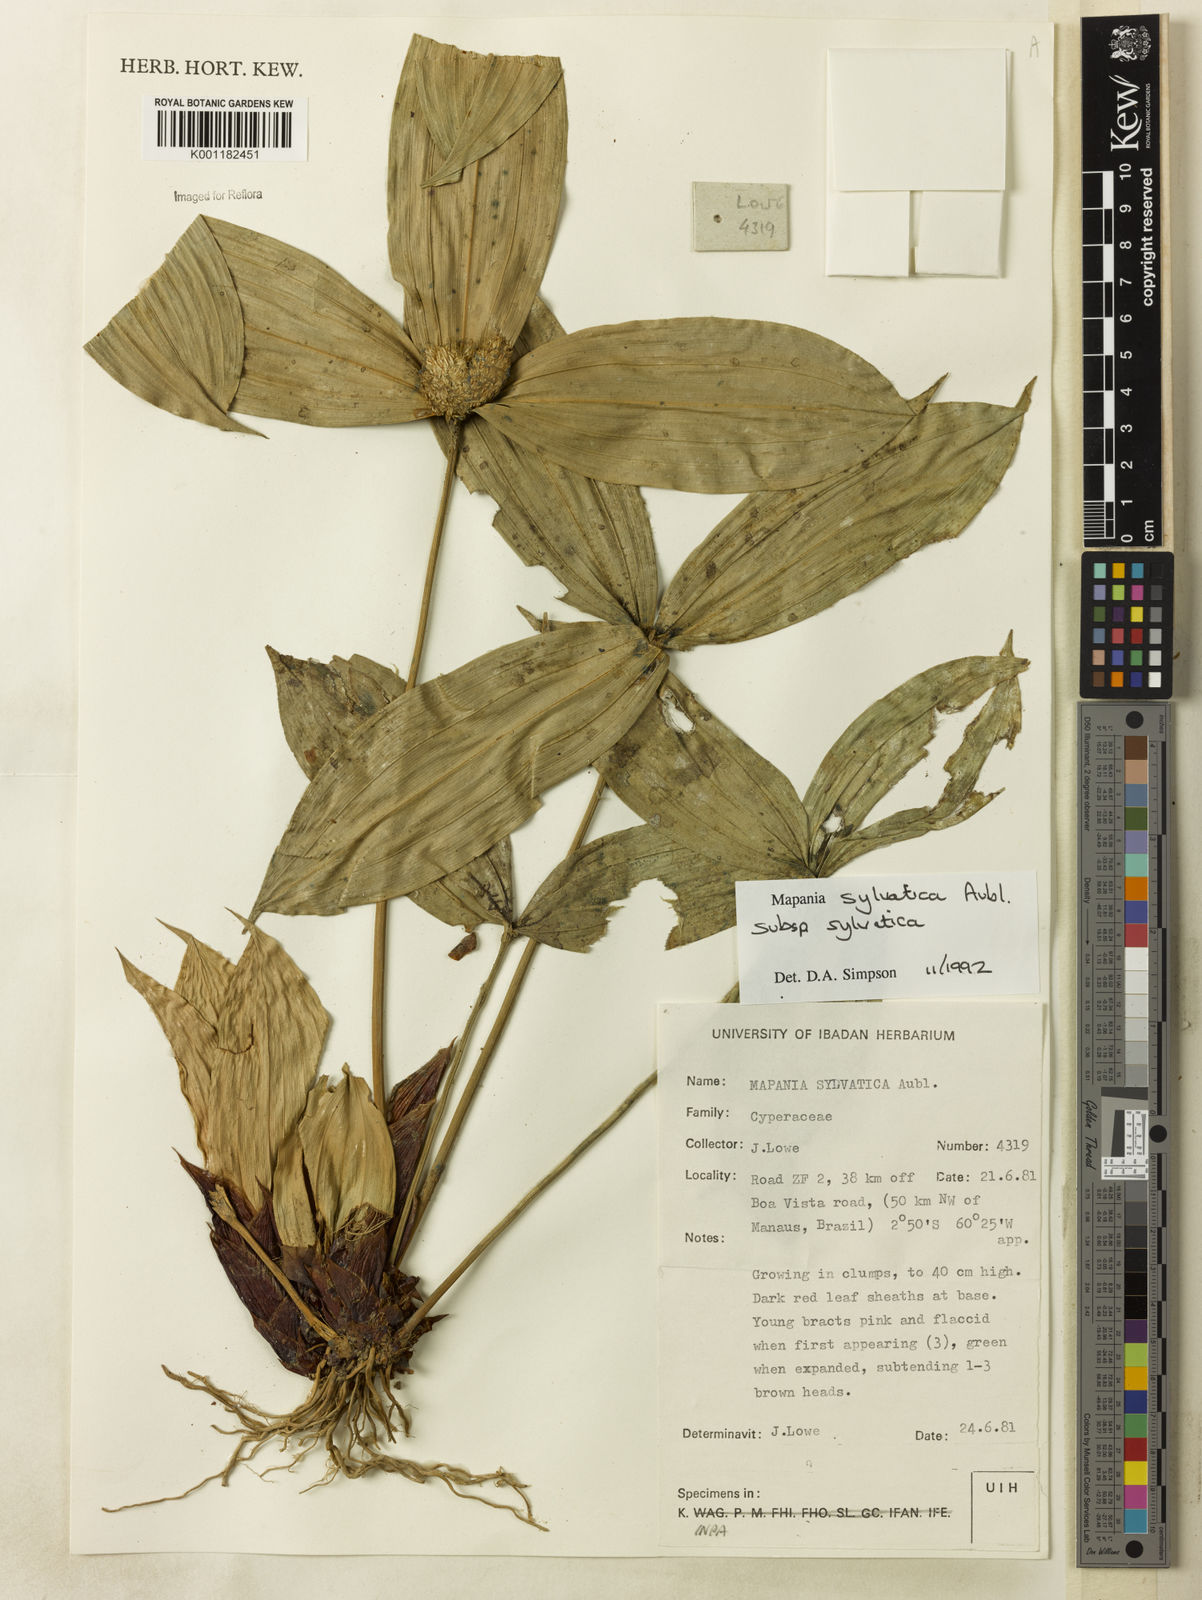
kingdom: Plantae
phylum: Tracheophyta
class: Liliopsida
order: Poales
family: Cyperaceae
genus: Mapania
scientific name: Mapania sylvatica
